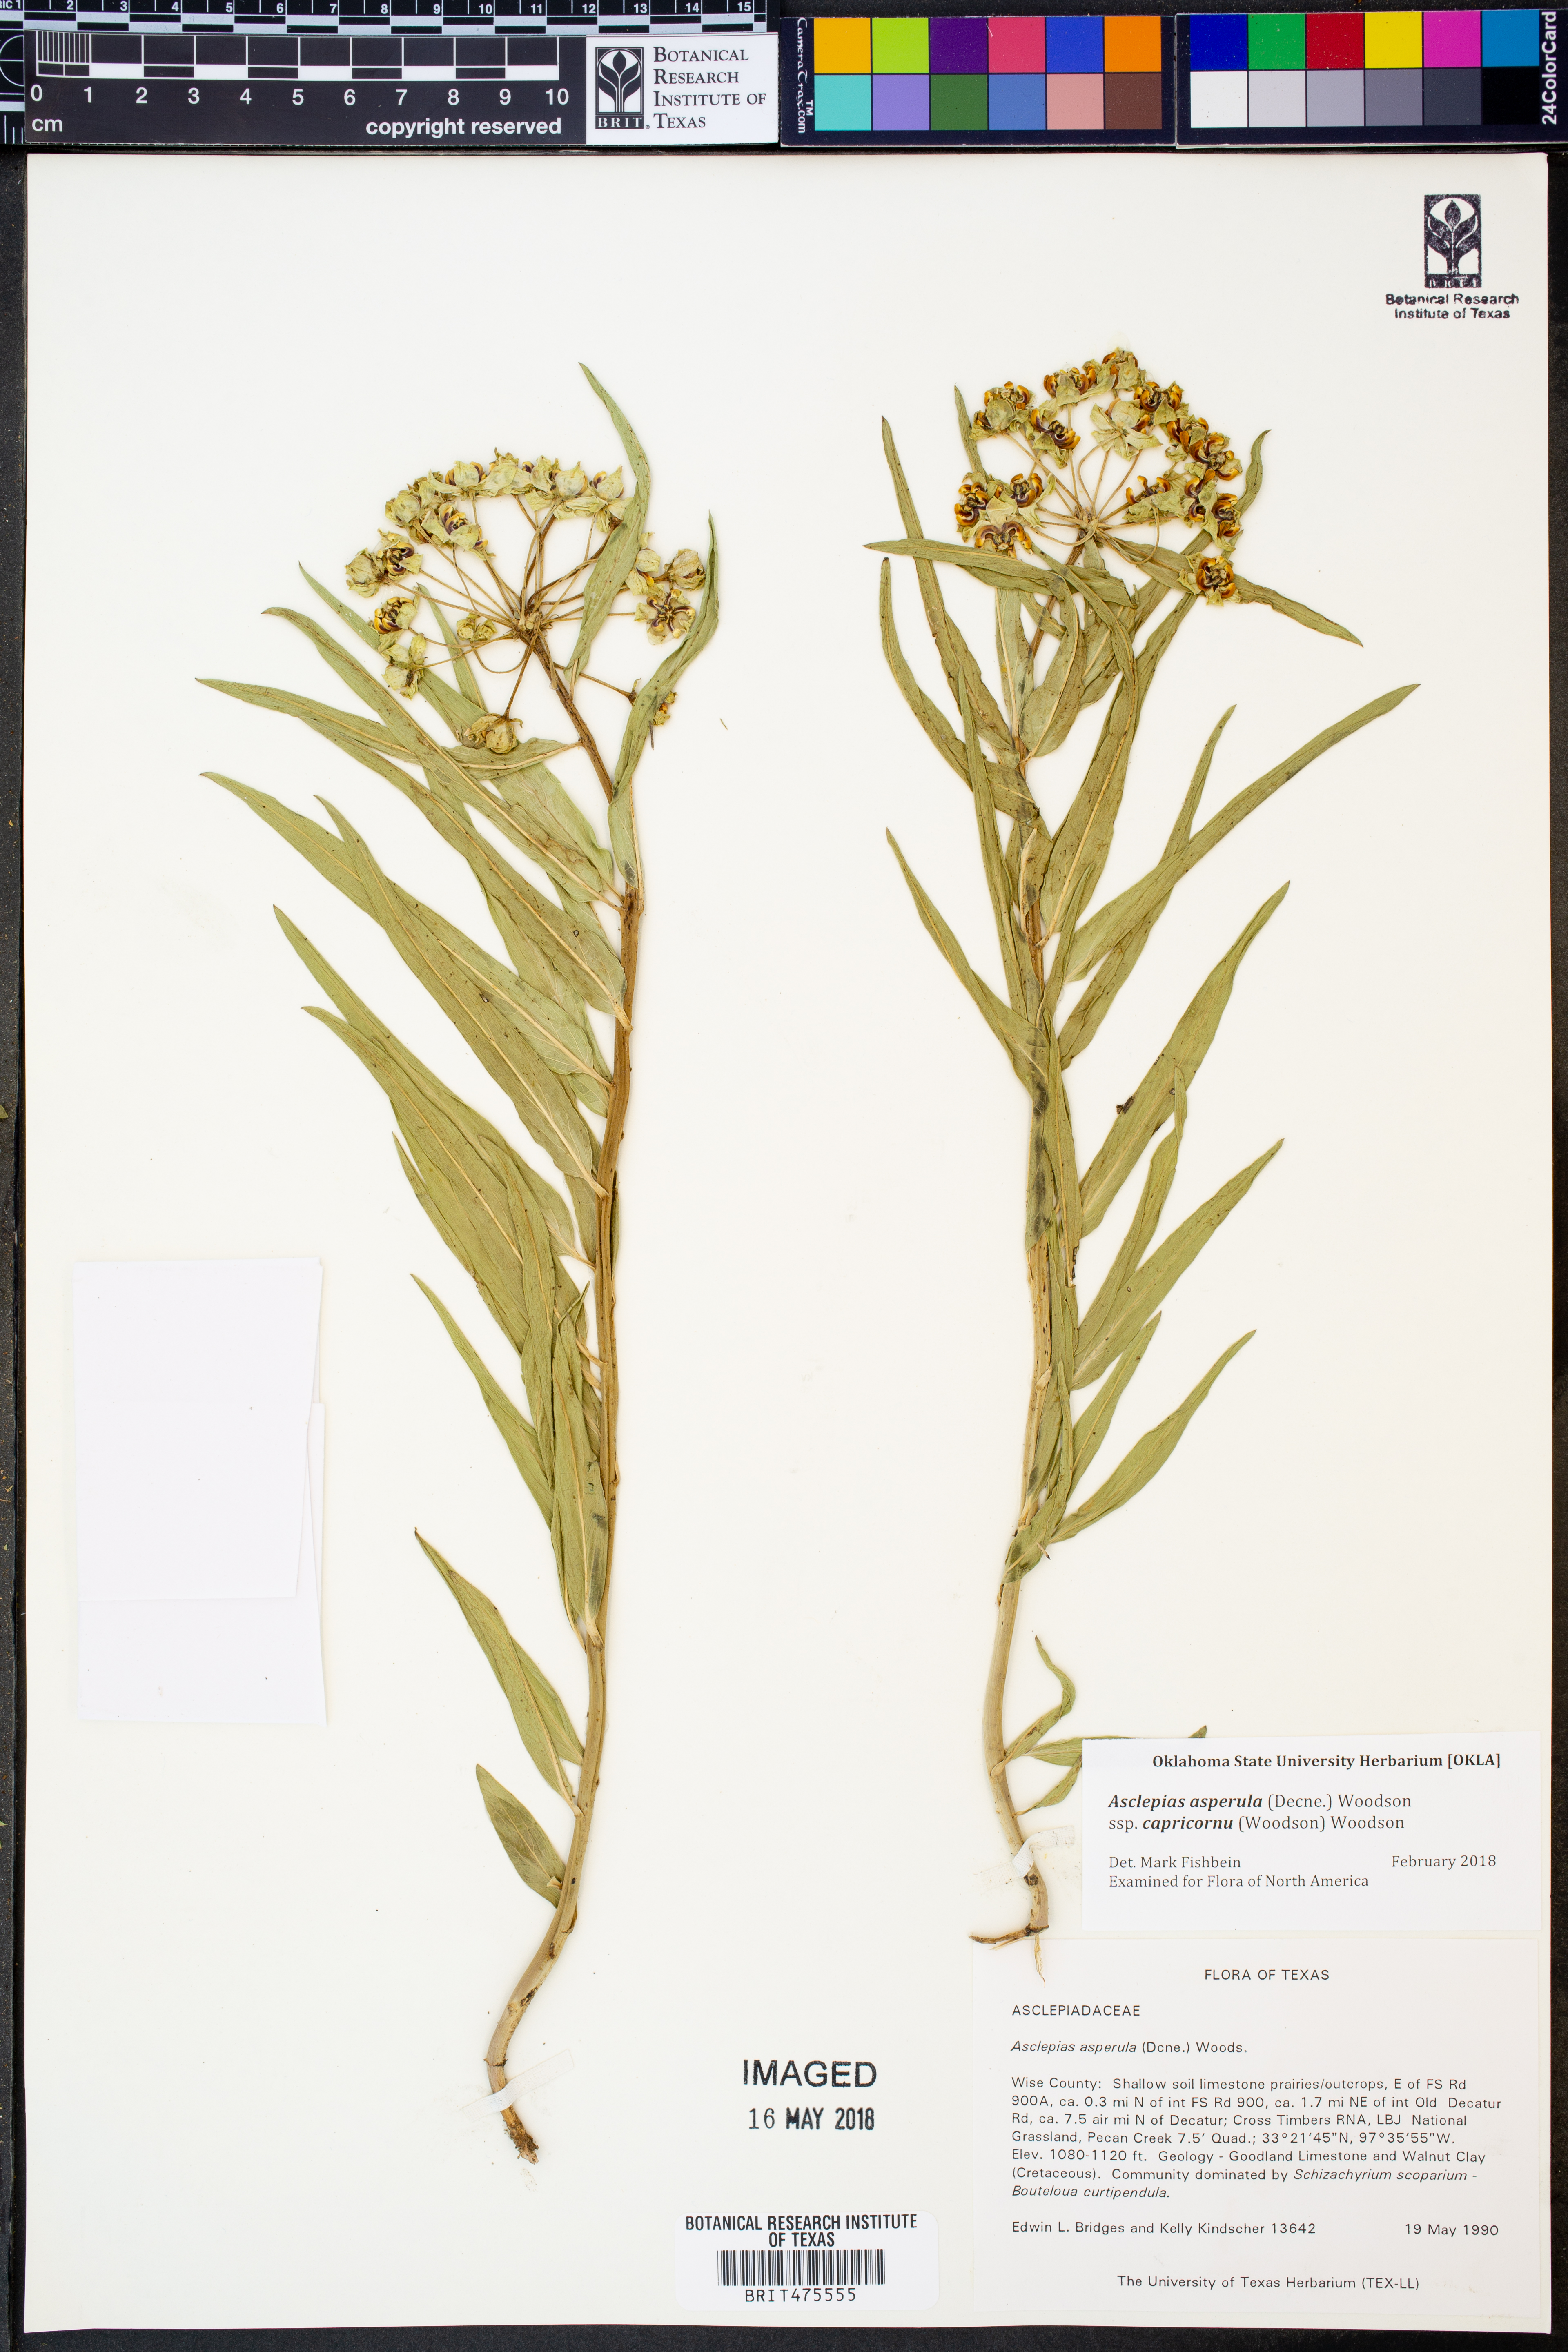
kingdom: Plantae
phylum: Tracheophyta
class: Magnoliopsida
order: Gentianales
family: Apocynaceae
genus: Asclepias
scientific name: Asclepias asperula
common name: Antelope horns
